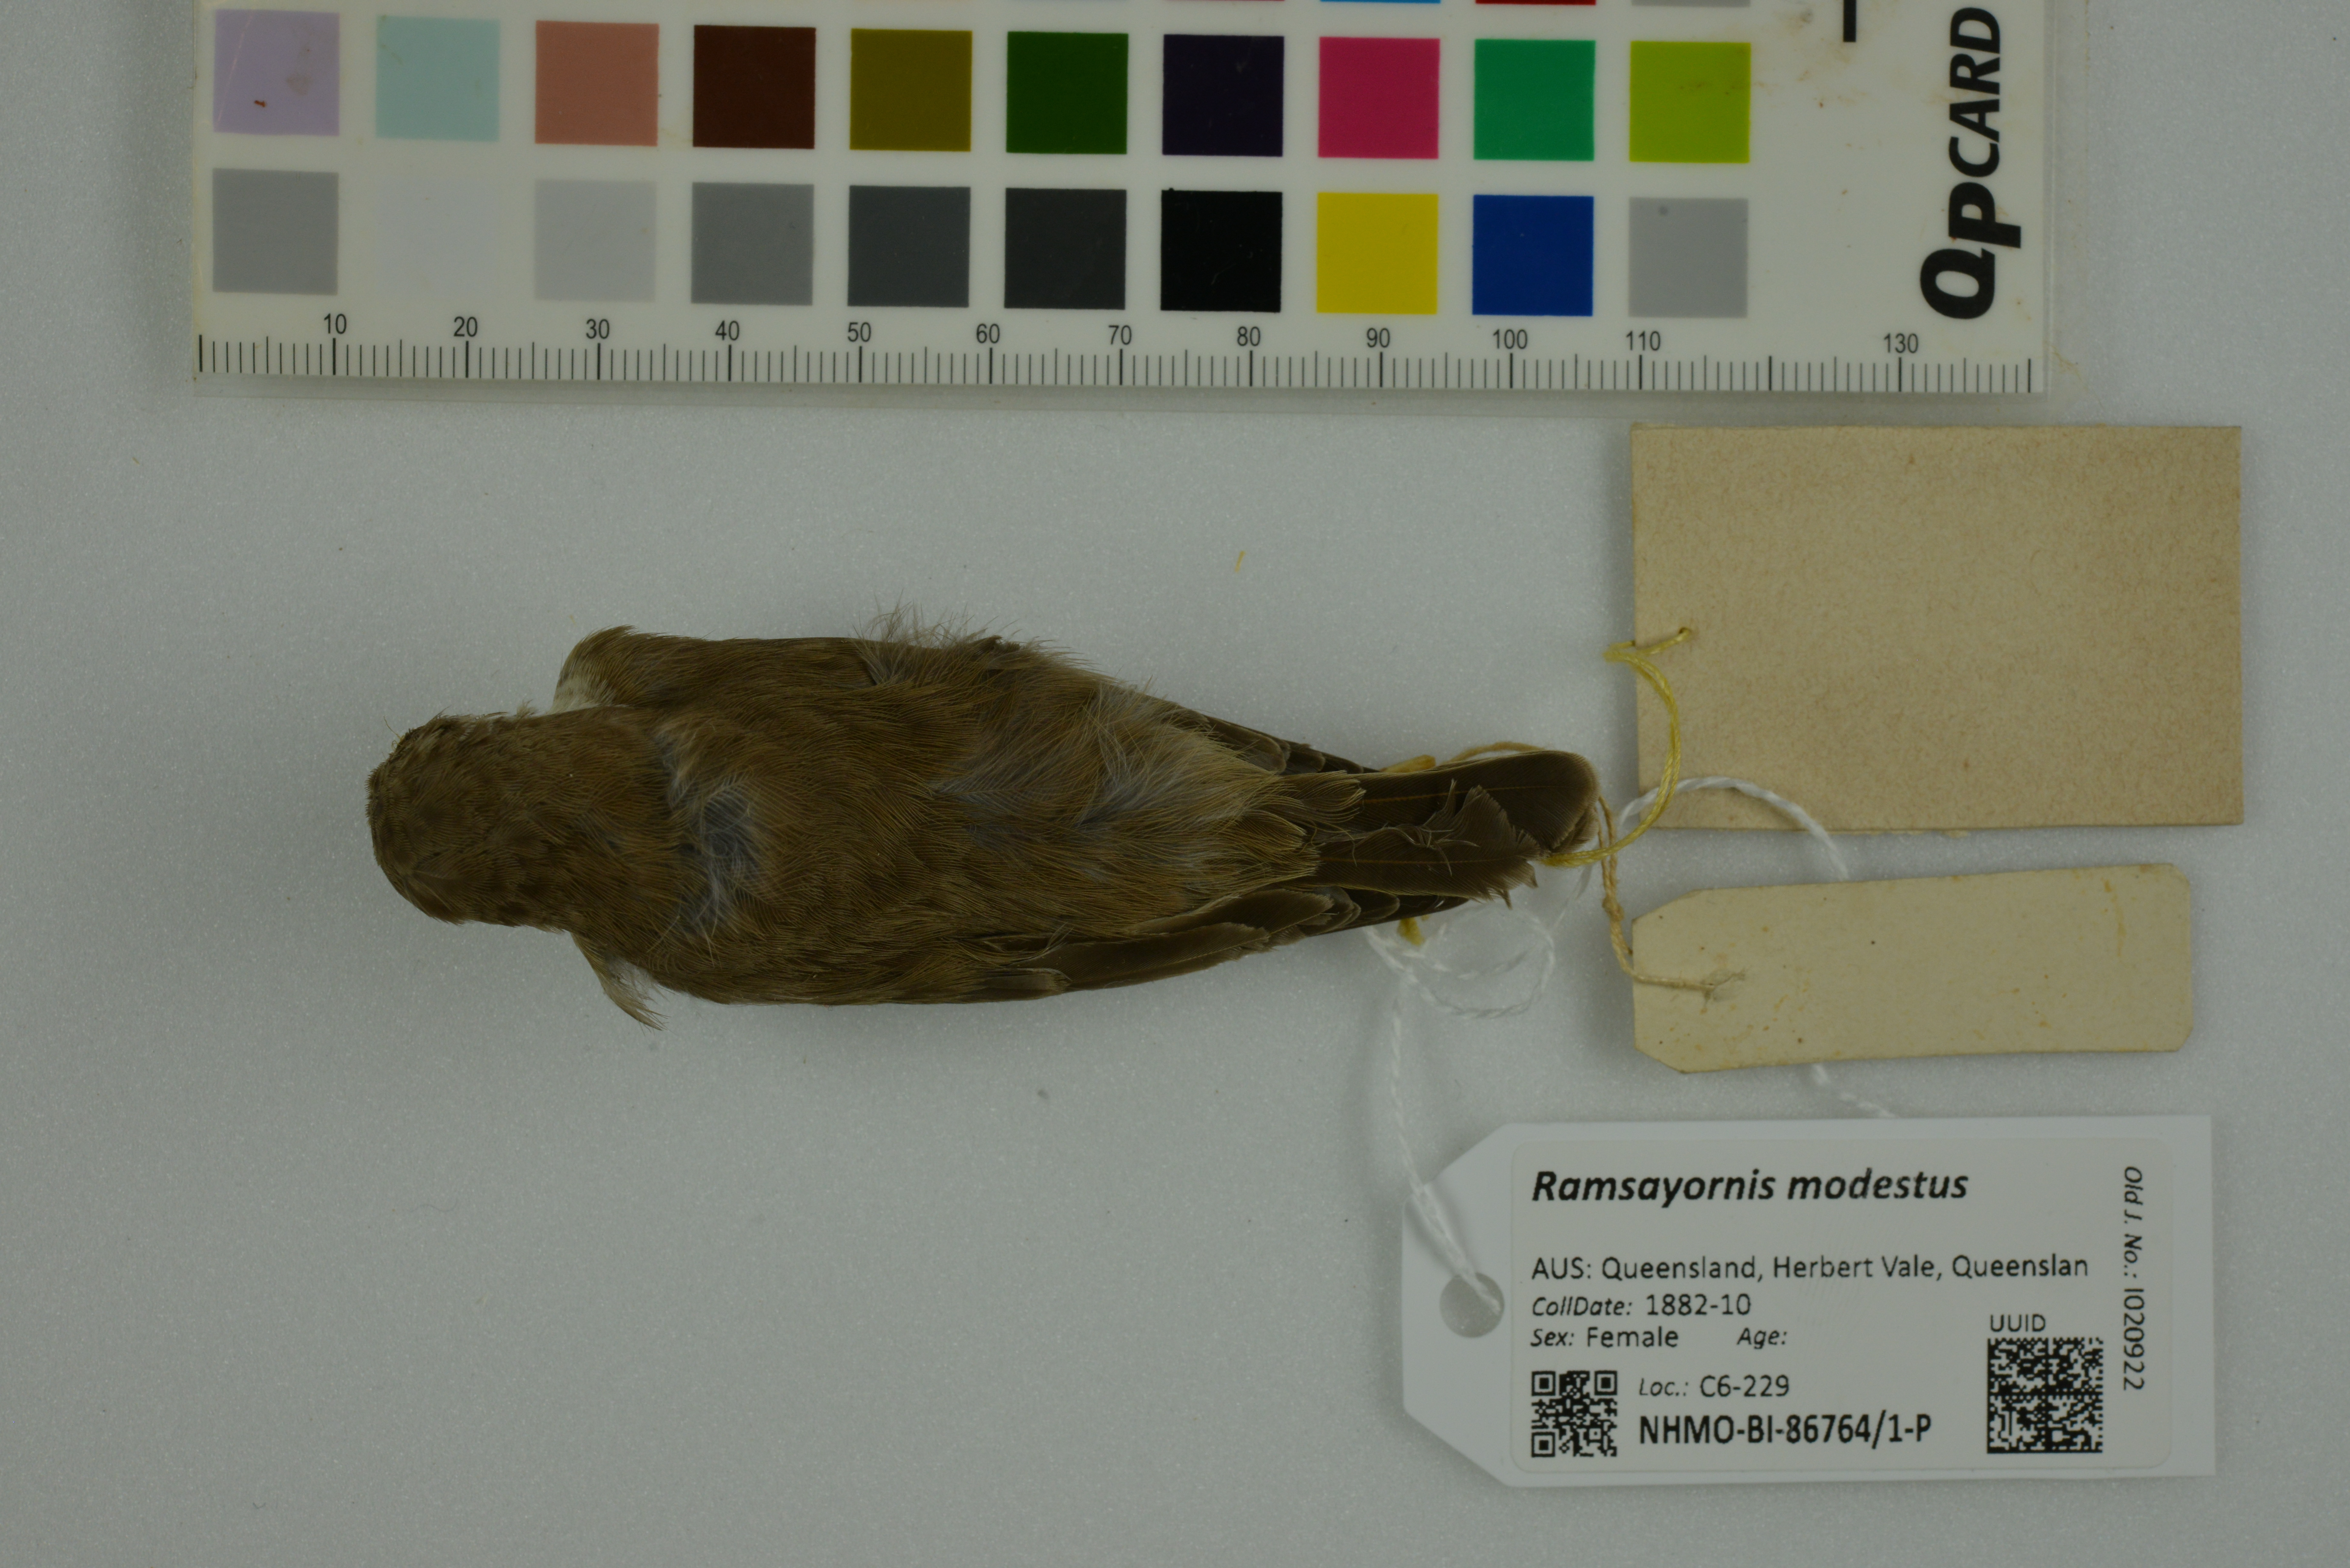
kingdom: Animalia
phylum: Chordata
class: Aves
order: Passeriformes
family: Meliphagidae
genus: Ramsayornis
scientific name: Ramsayornis modestus
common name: Brown-backed honeyeater
